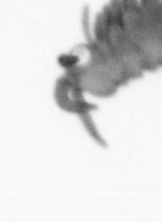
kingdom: Animalia
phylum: Annelida
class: Polychaeta
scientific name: Polychaeta
